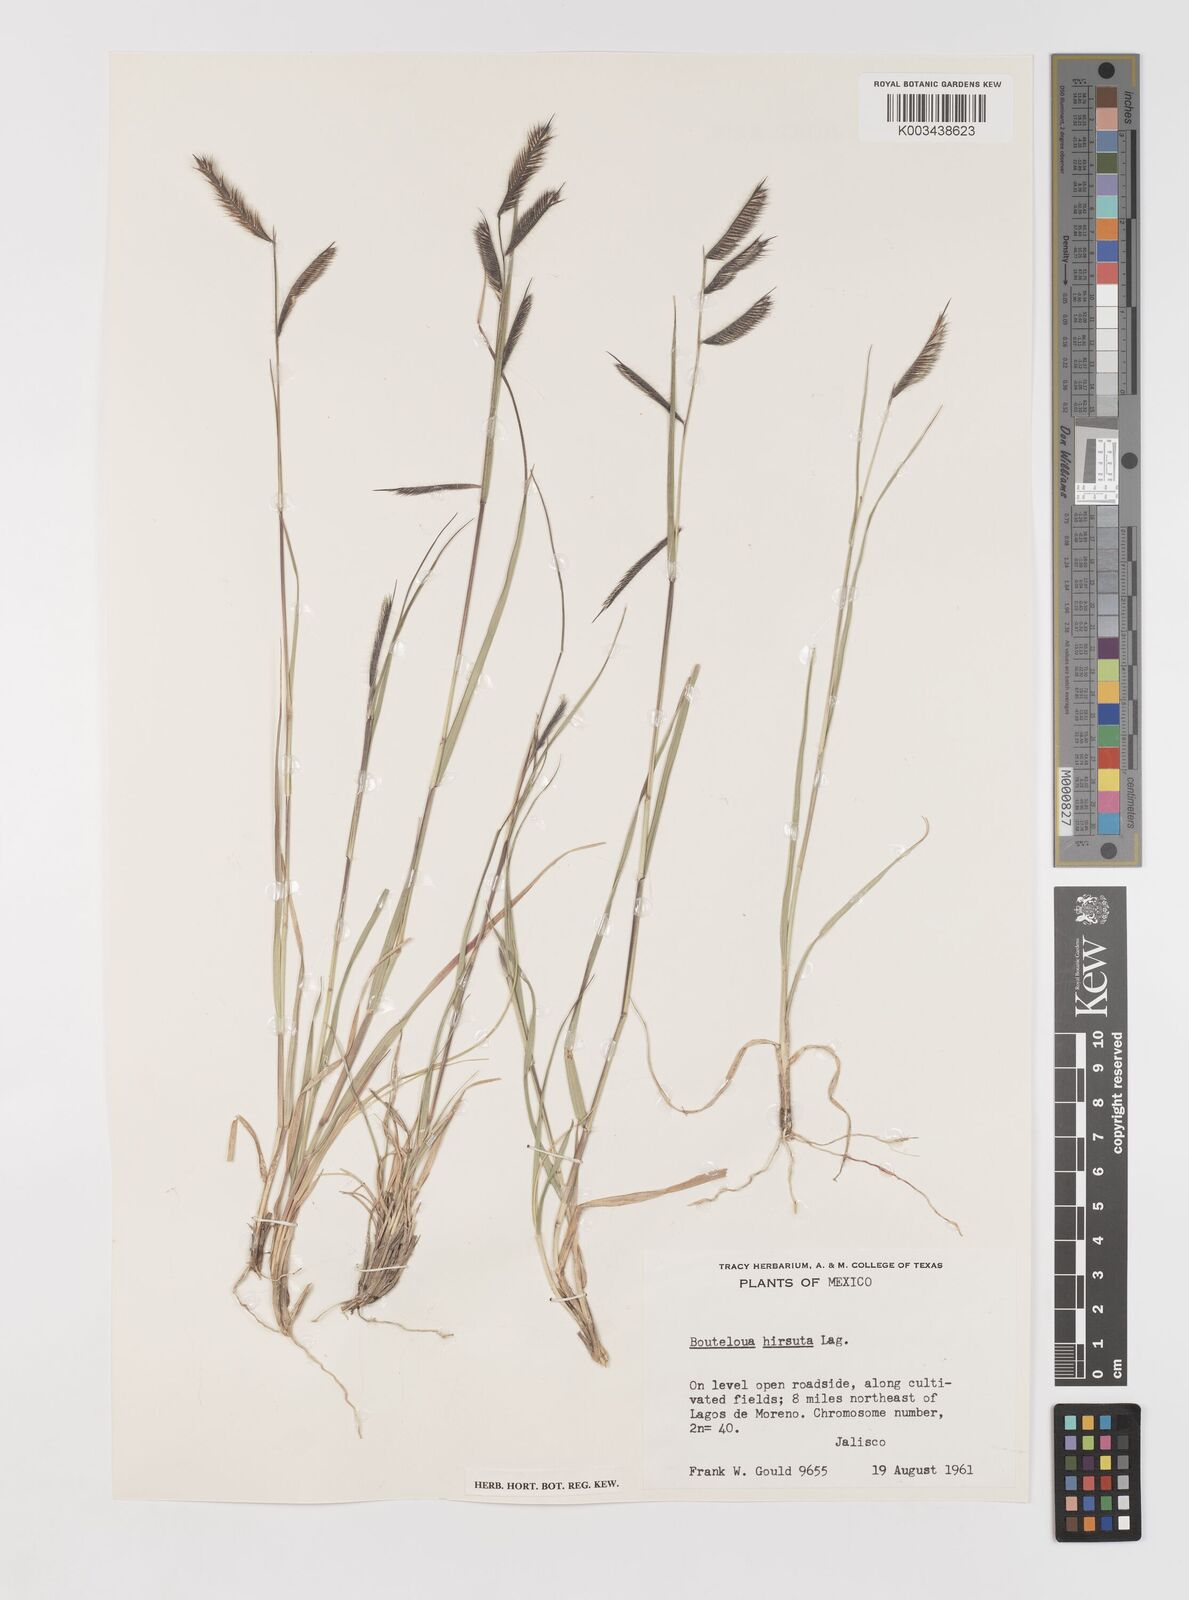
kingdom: Plantae
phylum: Tracheophyta
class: Liliopsida
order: Poales
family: Poaceae
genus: Bouteloua
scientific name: Bouteloua hirsuta
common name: Hairy grama
